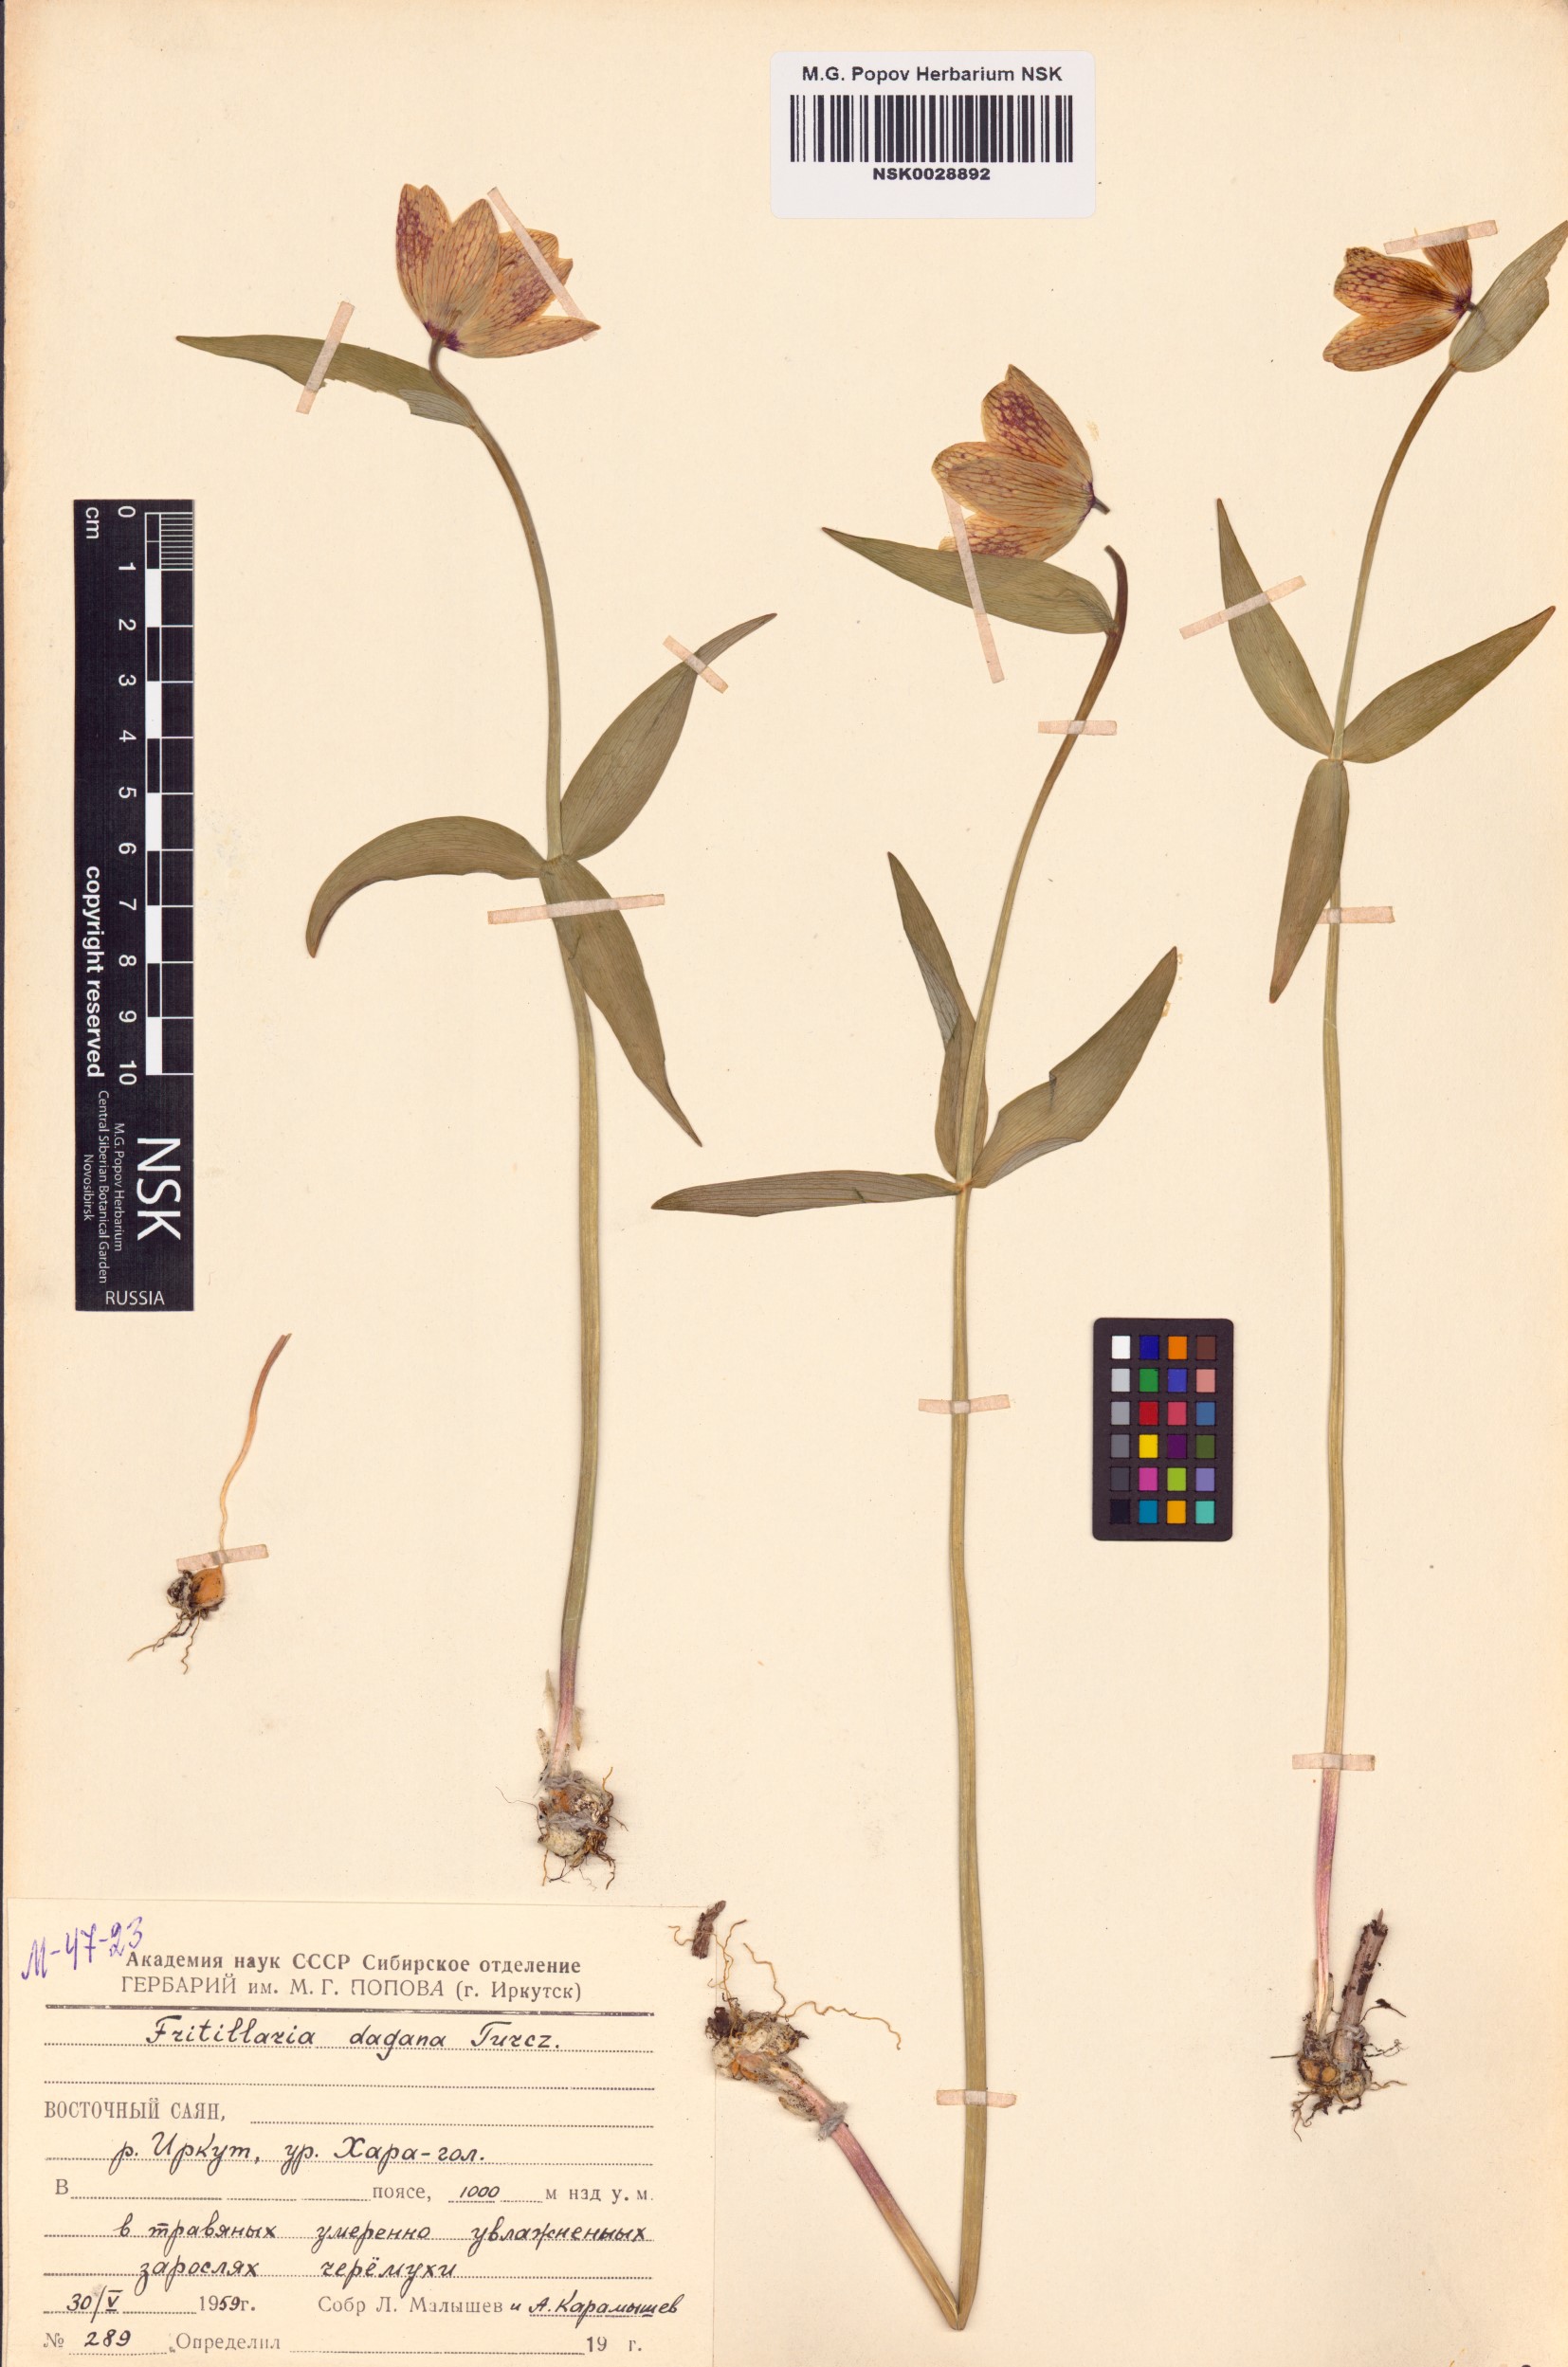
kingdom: Plantae
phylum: Tracheophyta
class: Liliopsida
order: Liliales
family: Liliaceae
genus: Fritillaria
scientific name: Fritillaria dagana
